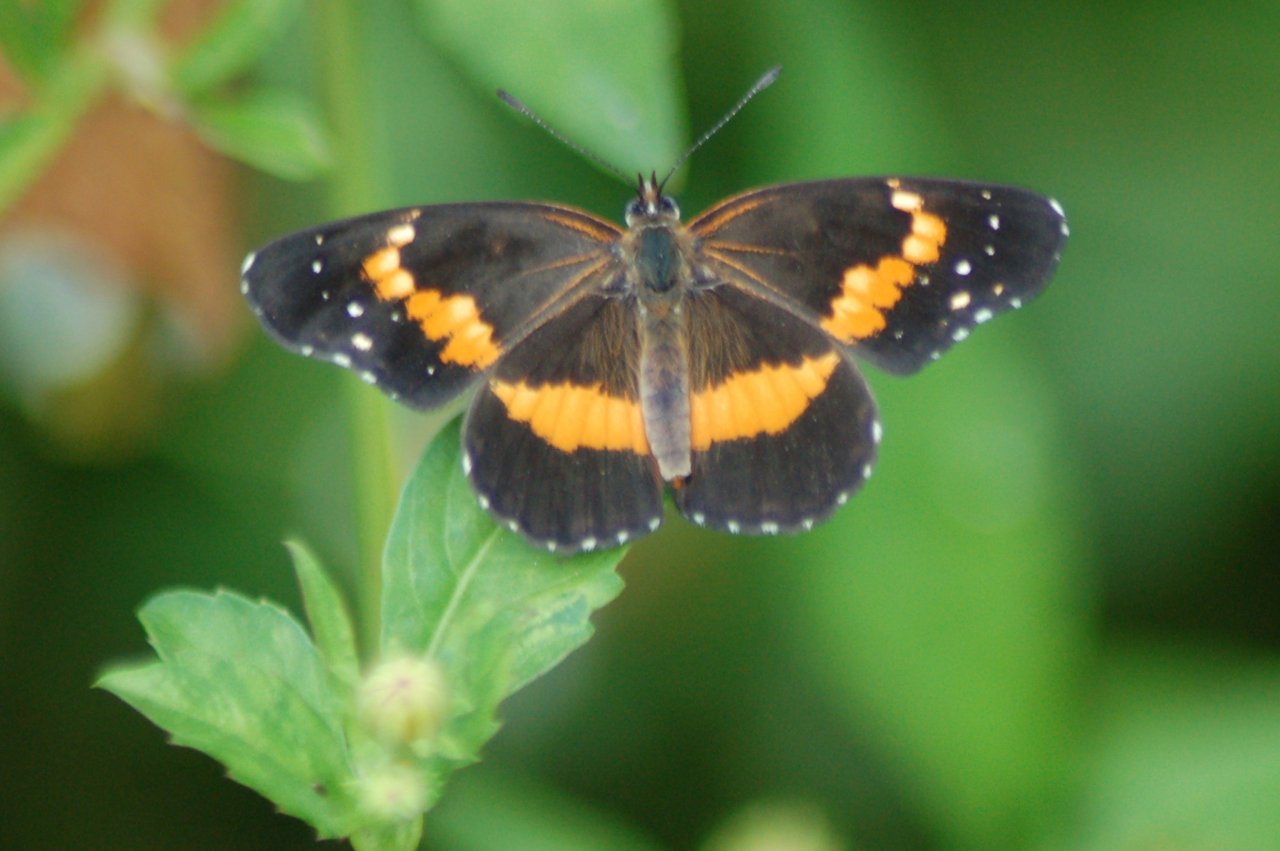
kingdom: Animalia
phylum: Arthropoda
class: Insecta
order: Lepidoptera
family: Nymphalidae
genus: Chlosyne
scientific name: Chlosyne lacinia
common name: Bordered Patch
